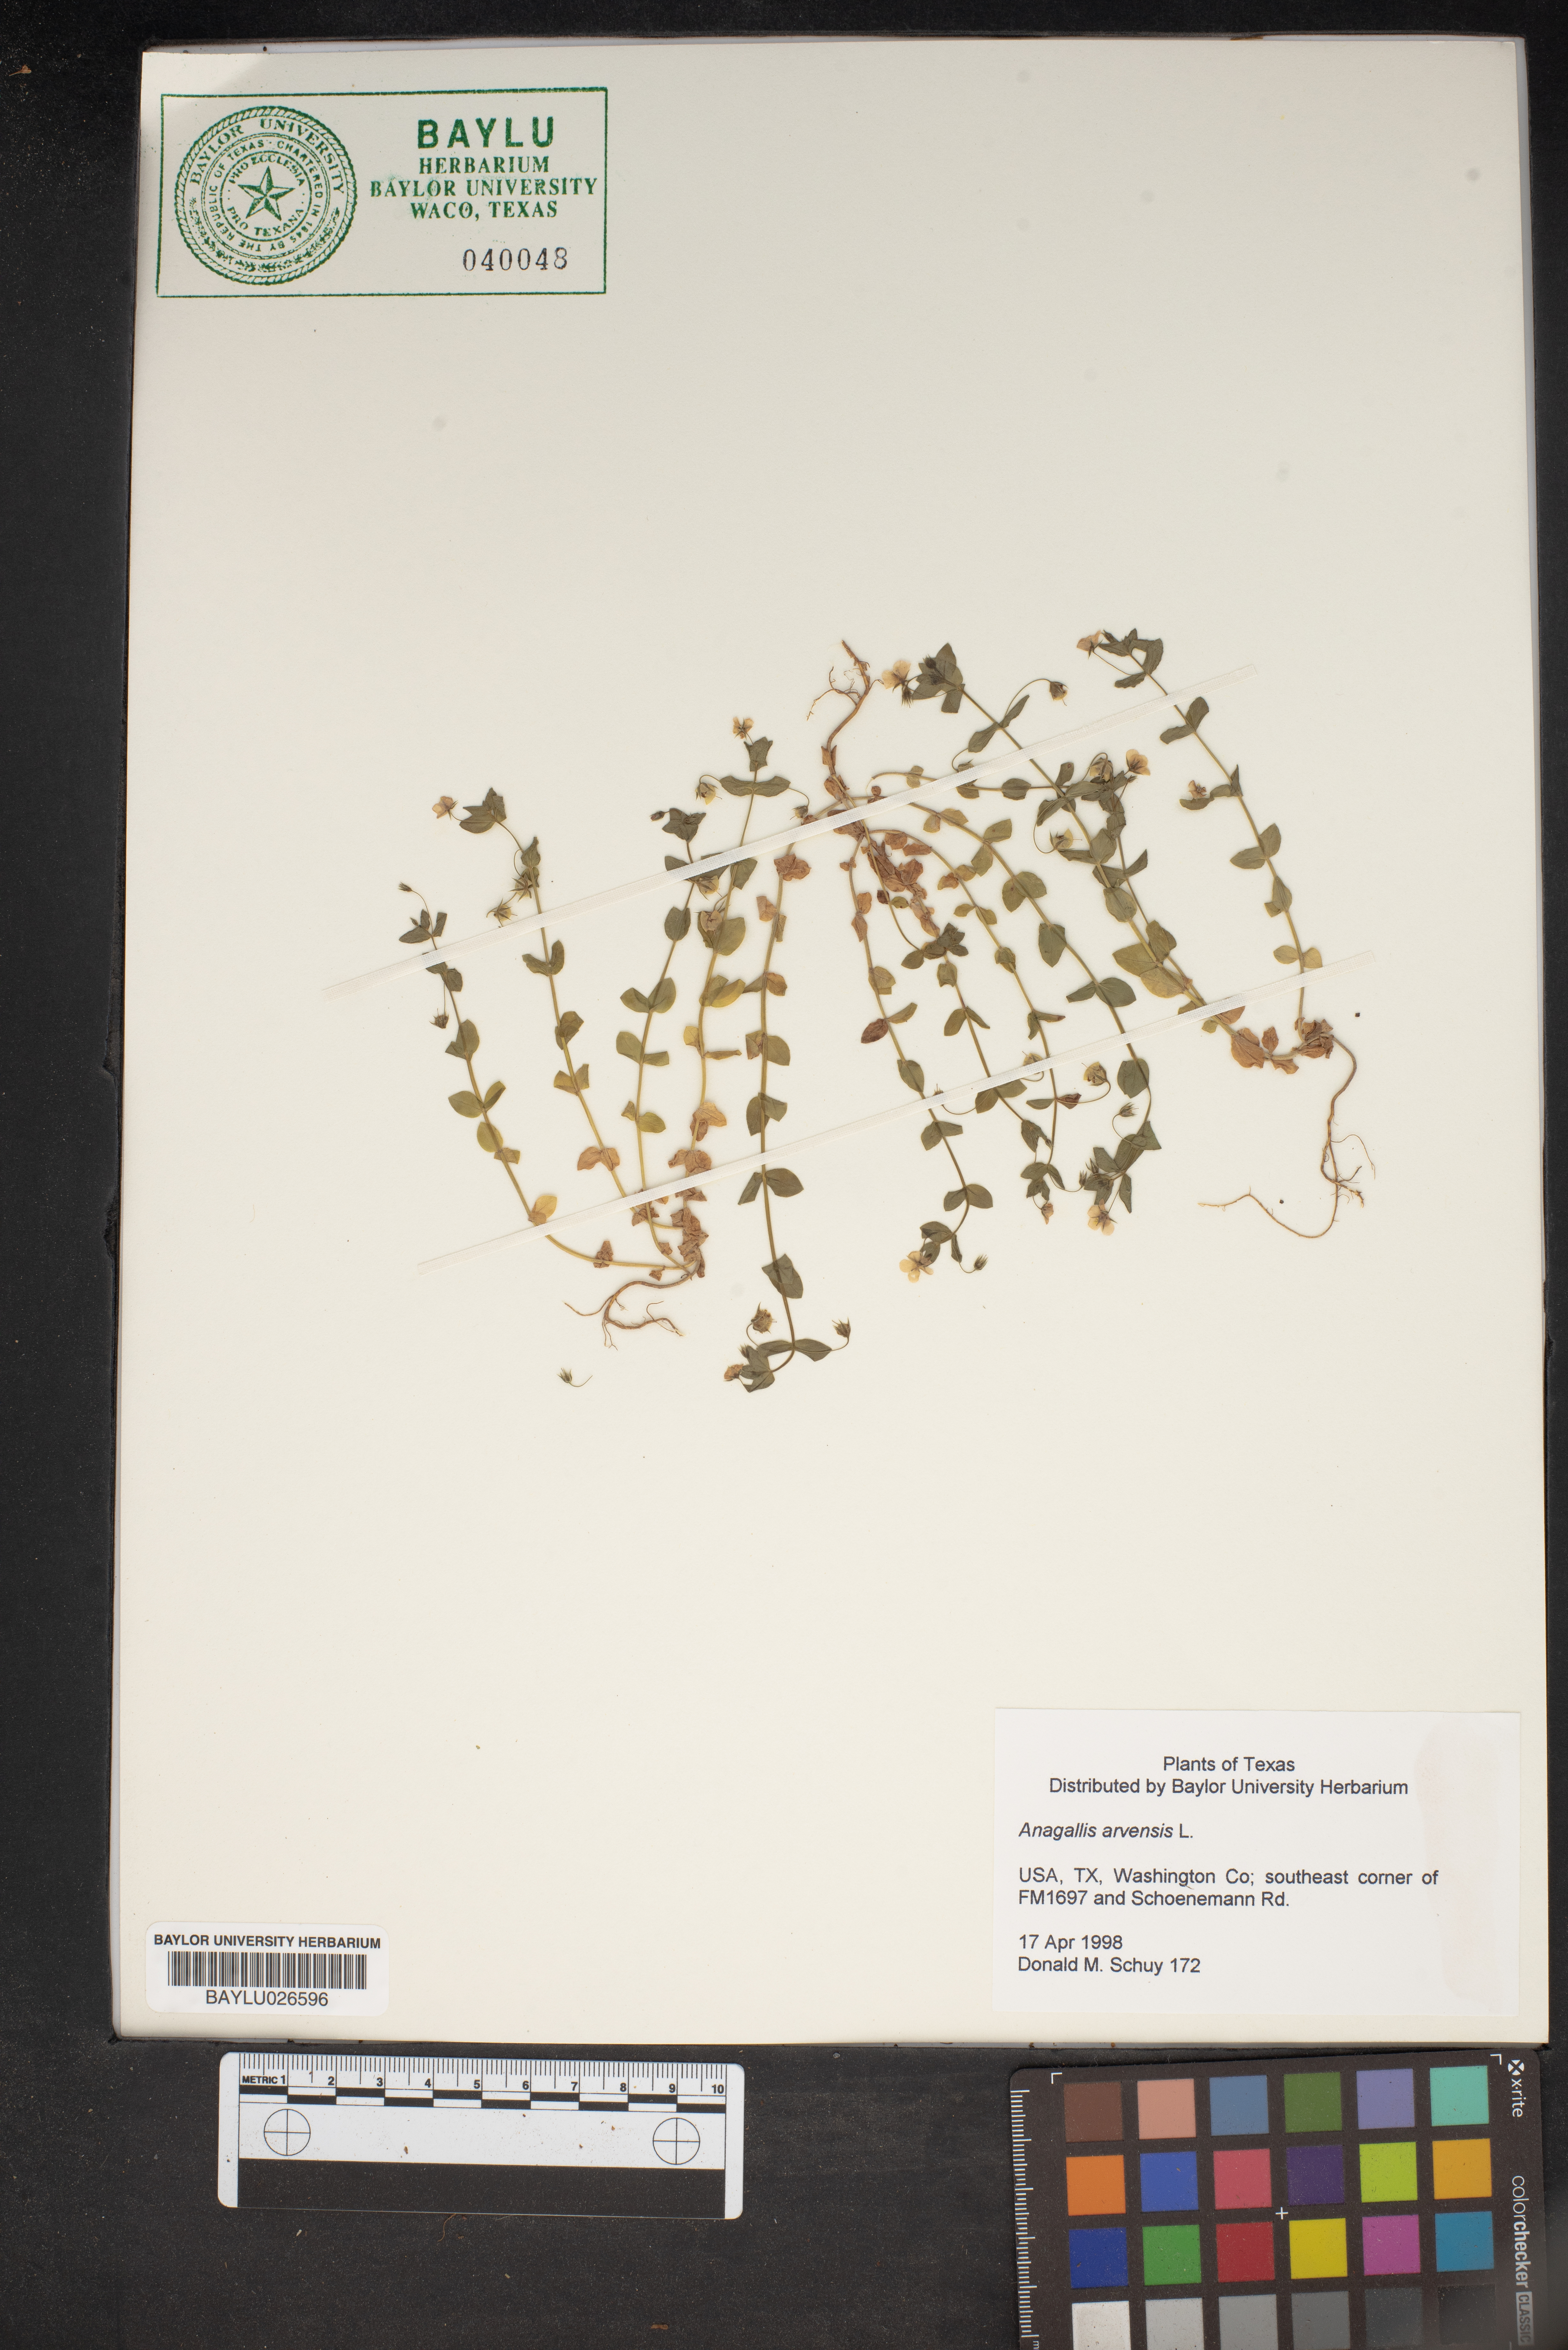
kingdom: Plantae
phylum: Tracheophyta
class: Magnoliopsida
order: Ericales
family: Primulaceae
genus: Lysimachia
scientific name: Lysimachia arvensis
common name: Scarlet pimpernel
